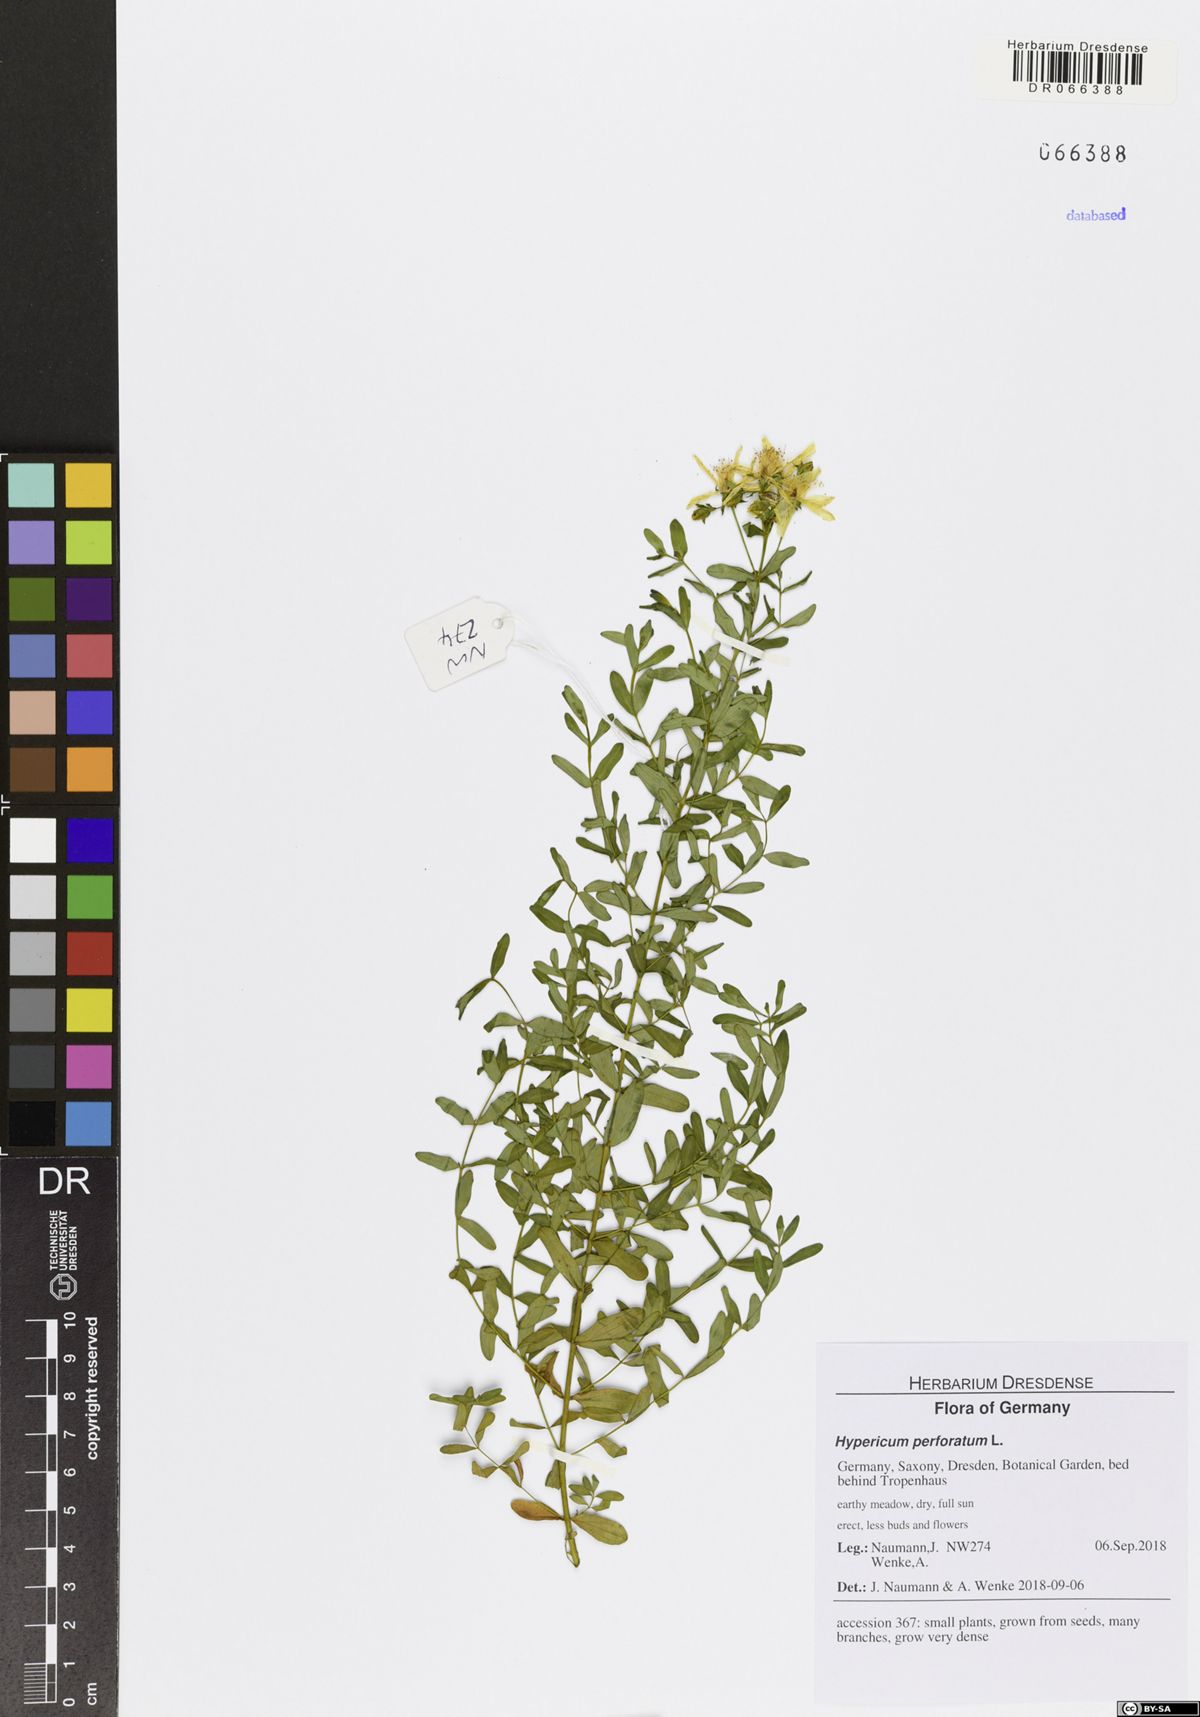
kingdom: Plantae
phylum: Tracheophyta
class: Magnoliopsida
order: Malpighiales
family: Hypericaceae
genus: Hypericum
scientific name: Hypericum perforatum
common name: Common st. johnswort
